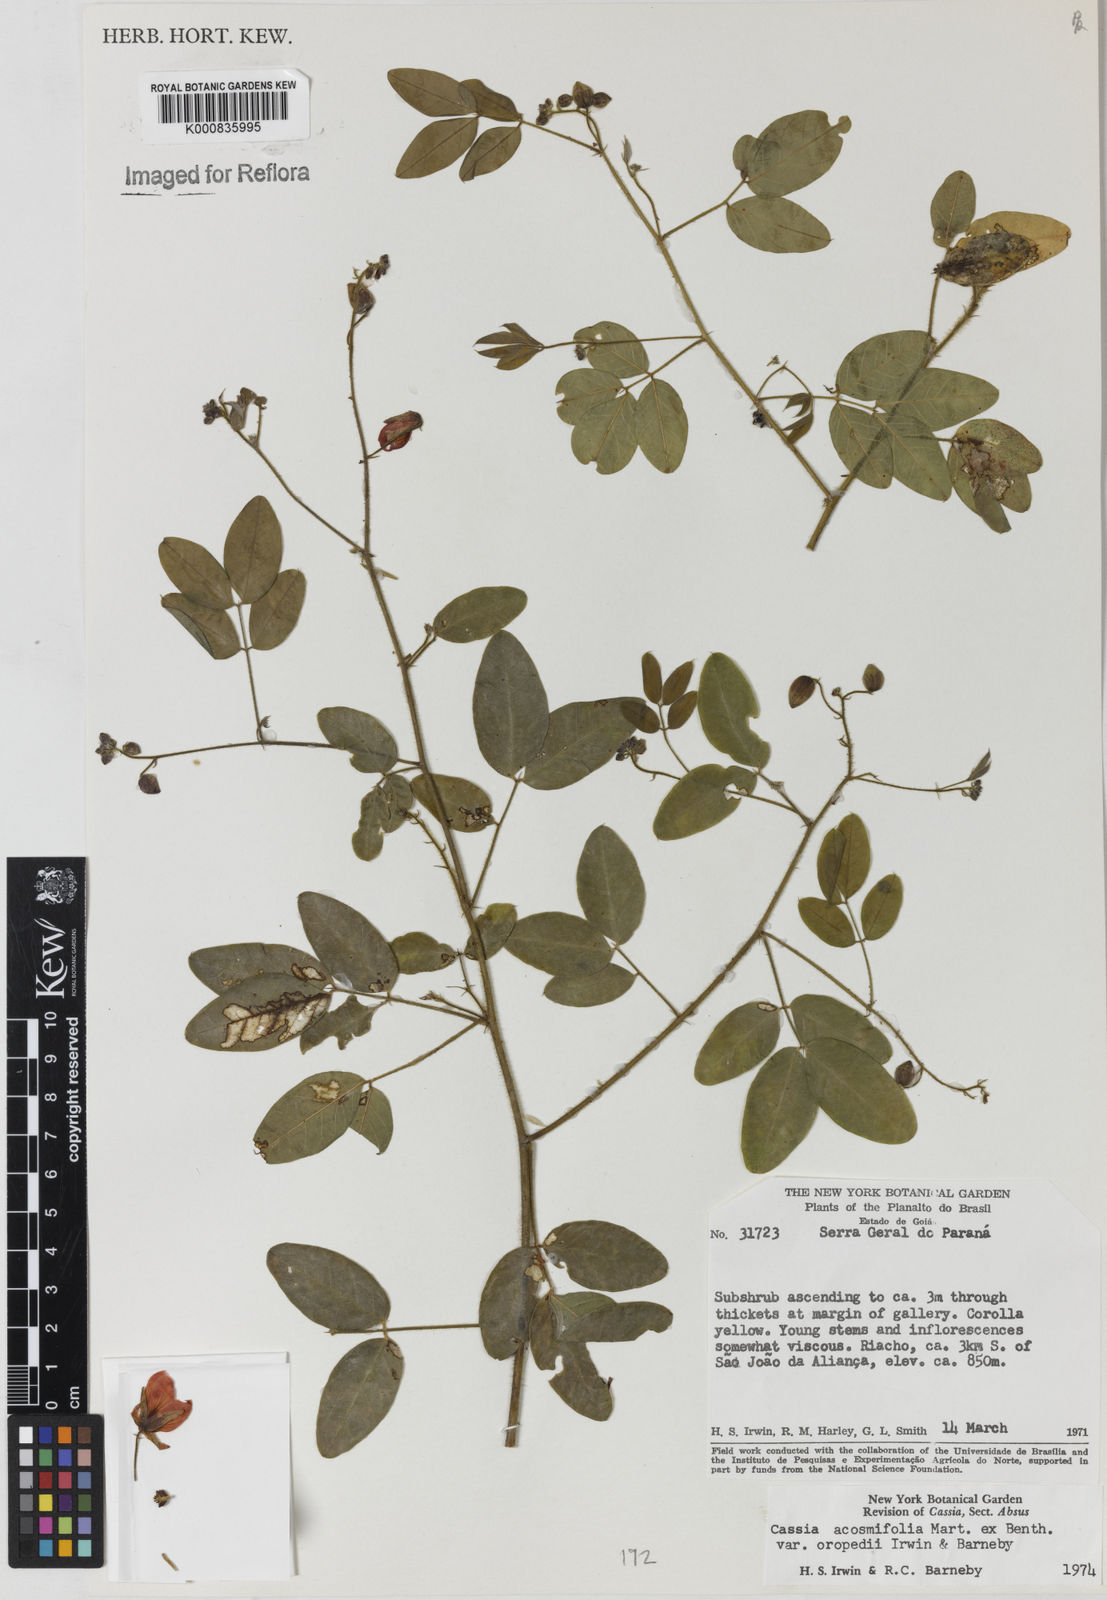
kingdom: Plantae
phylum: Tracheophyta
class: Magnoliopsida
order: Fabales
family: Fabaceae
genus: Chamaecrista
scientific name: Chamaecrista acosmifolia
